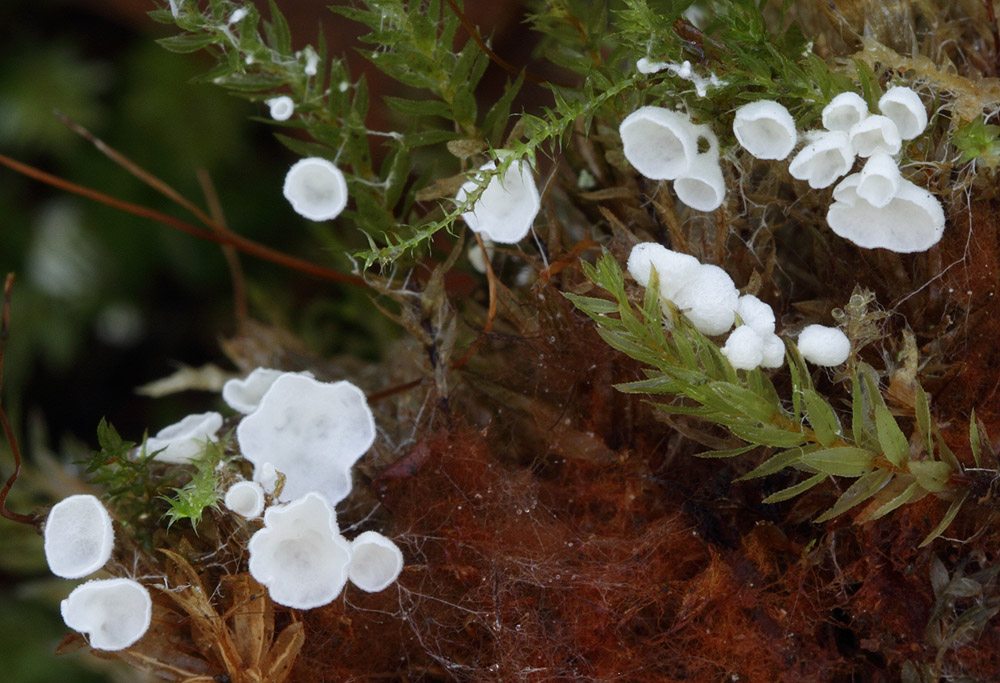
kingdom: Fungi
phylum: Basidiomycota
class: Agaricomycetes
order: Agaricales
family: Tricholomataceae
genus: Rimbachia
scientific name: Rimbachia arachnoidea
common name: Almindelig mosskål
